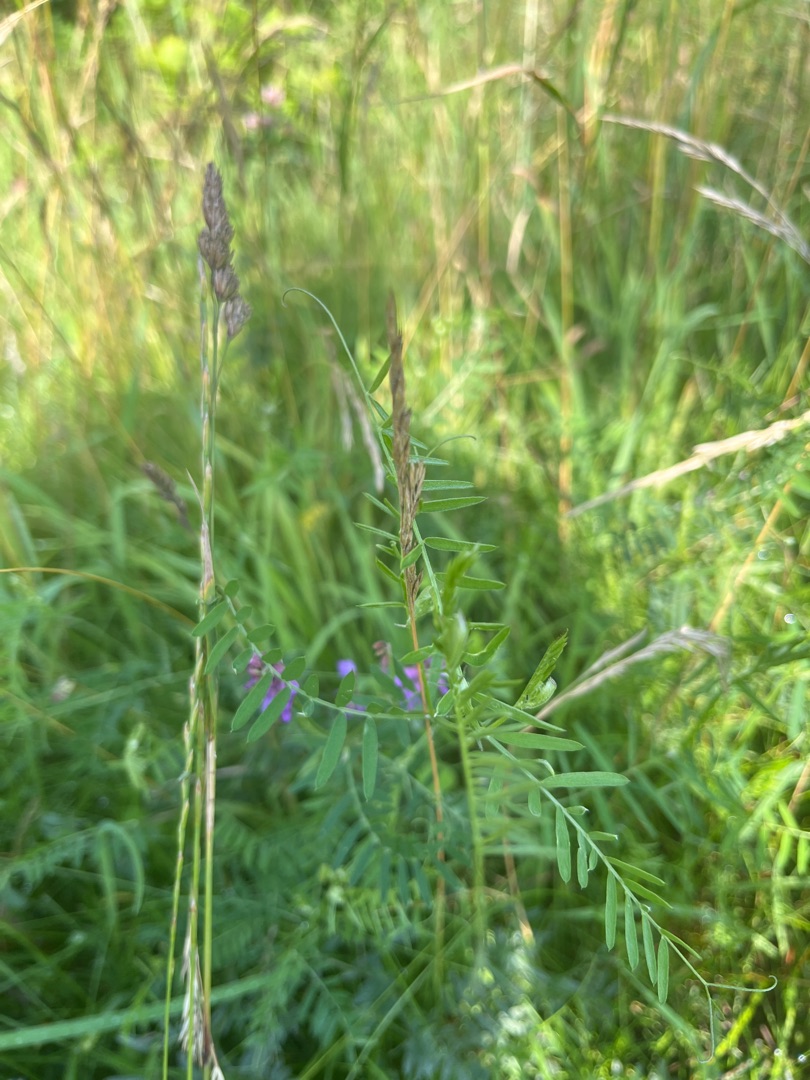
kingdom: Plantae
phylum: Tracheophyta
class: Magnoliopsida
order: Fabales
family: Fabaceae
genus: Vicia
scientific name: Vicia cracca
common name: Muse-vikke
